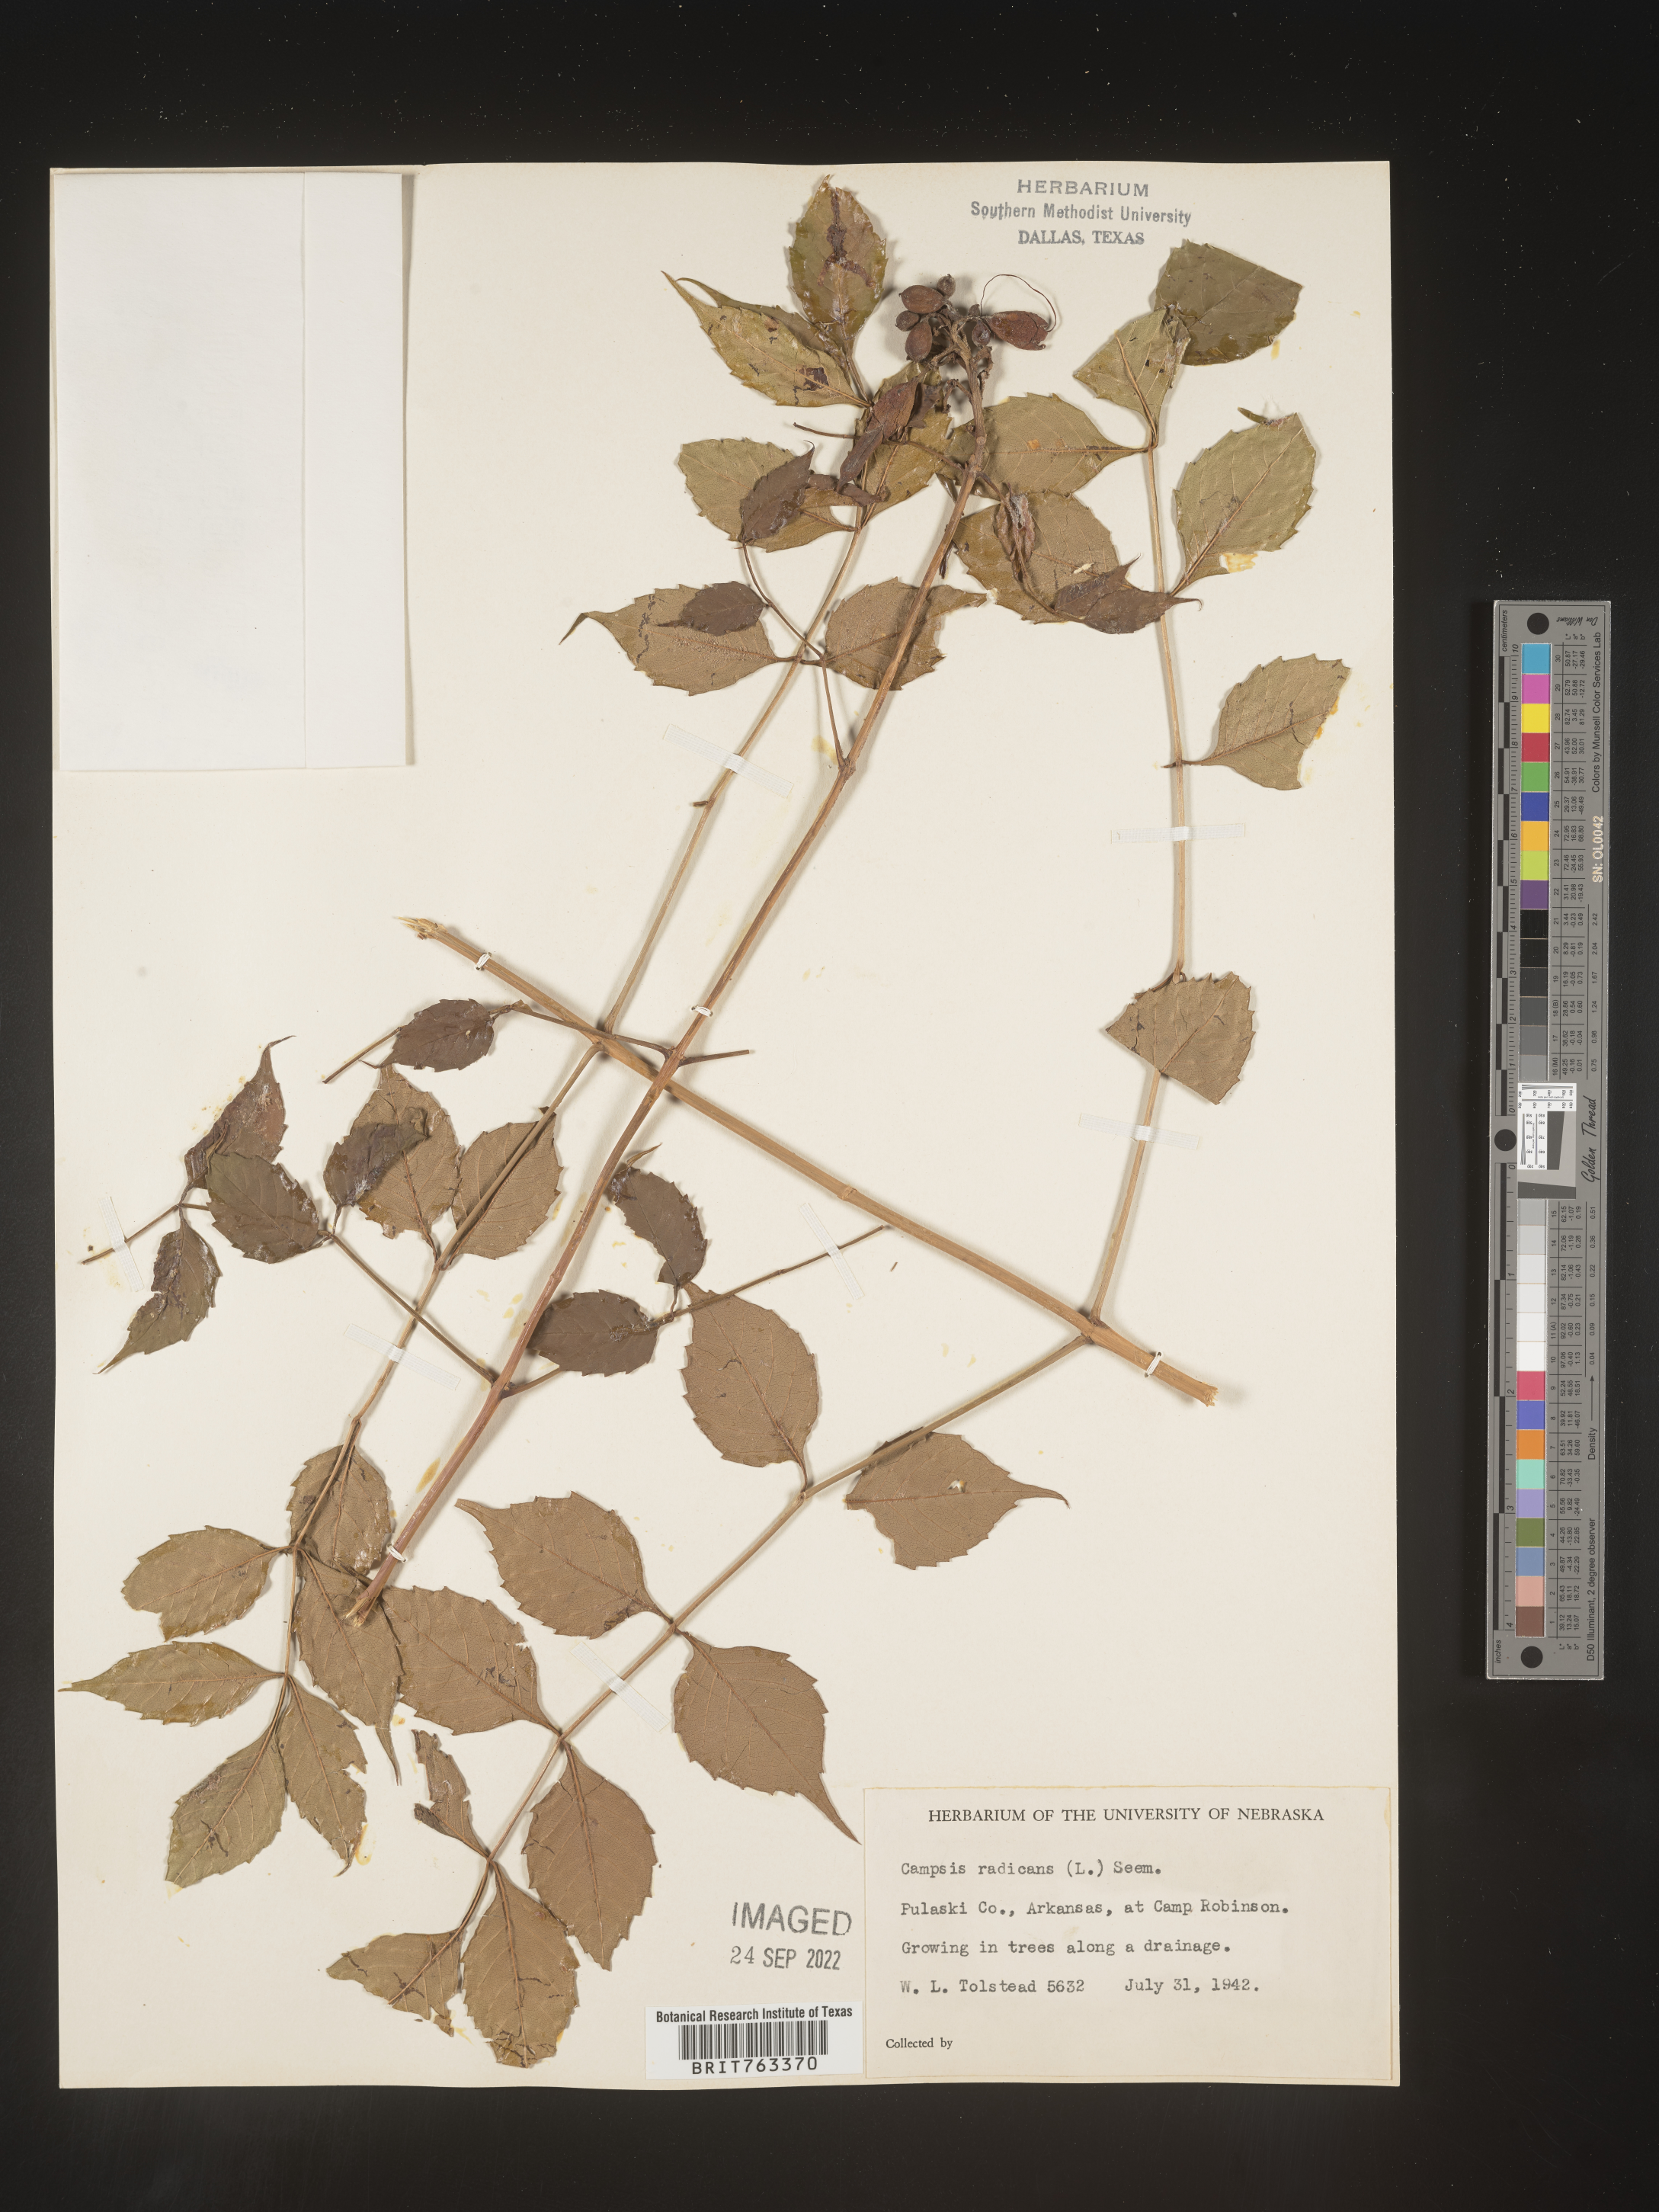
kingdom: Plantae
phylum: Tracheophyta
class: Magnoliopsida
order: Lamiales
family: Bignoniaceae
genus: Campsis
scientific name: Campsis radicans
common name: Trumpet-creeper
